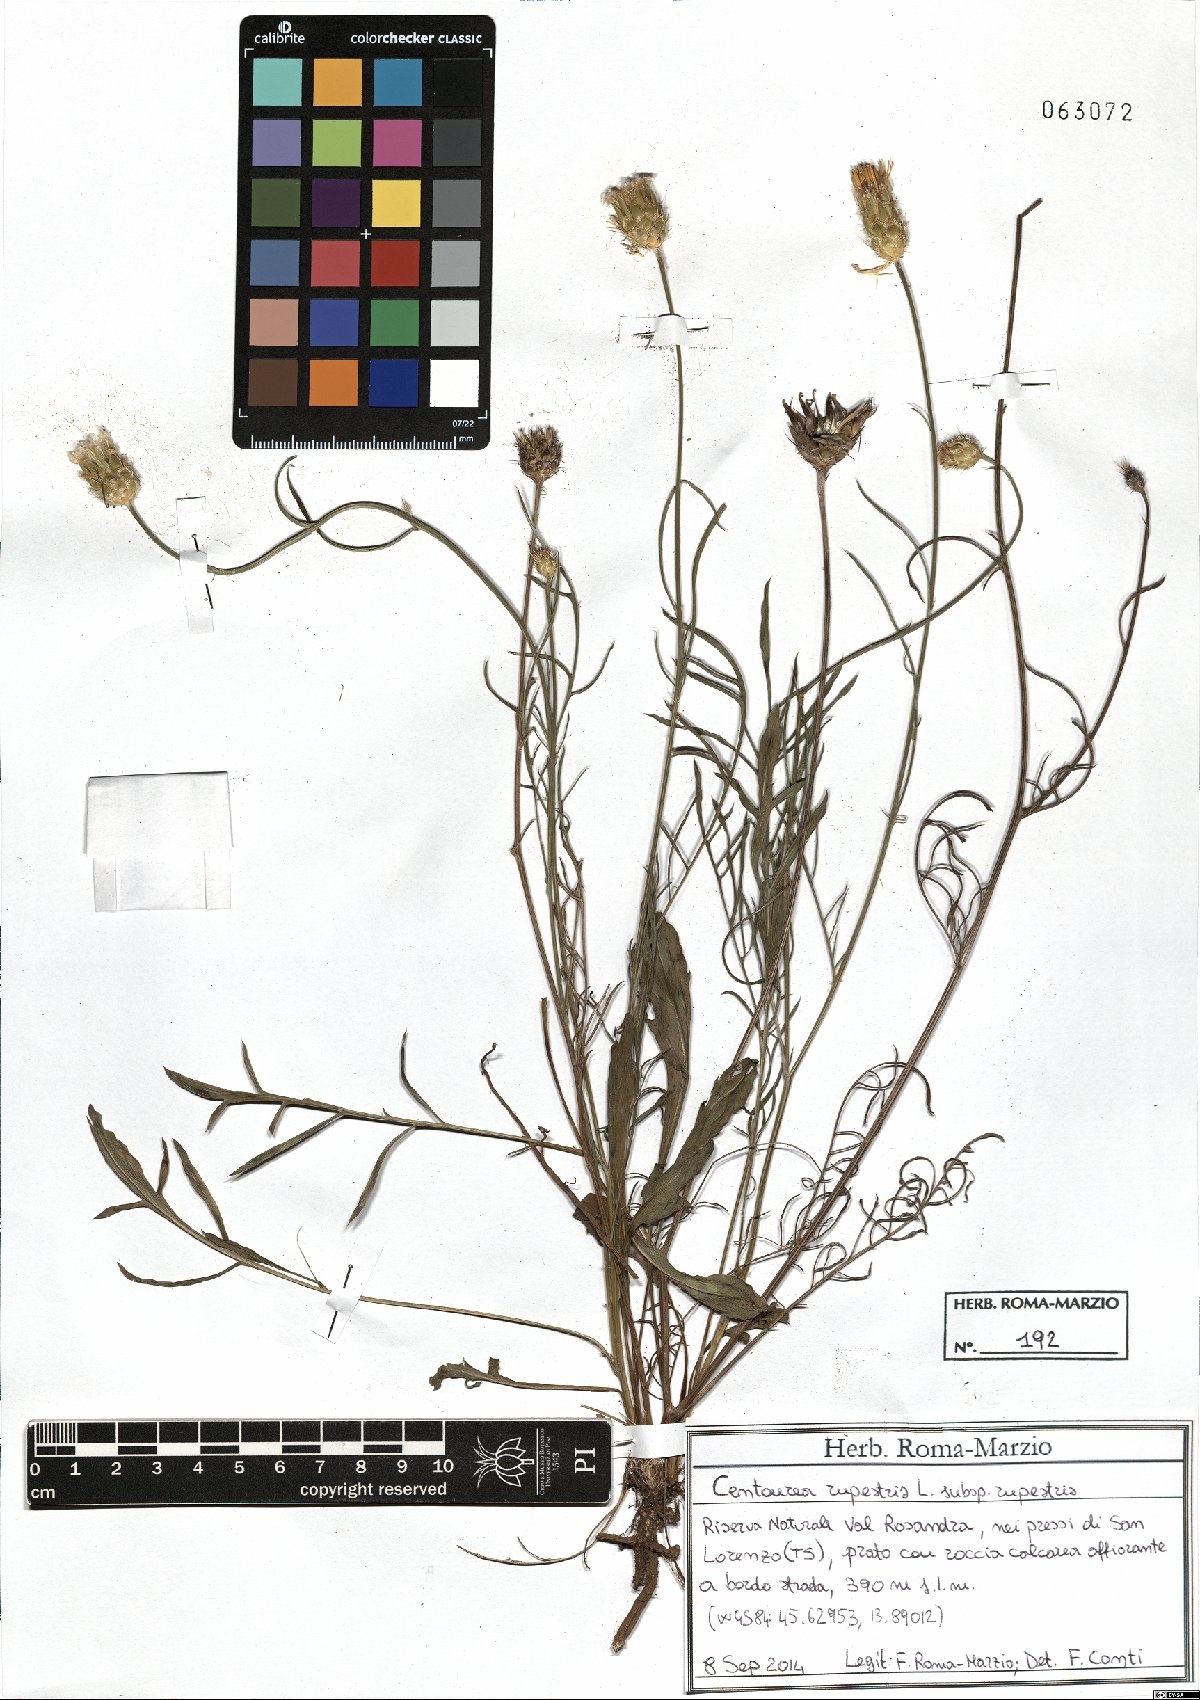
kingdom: Plantae
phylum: Tracheophyta
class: Magnoliopsida
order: Asterales
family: Asteraceae
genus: Centaurea
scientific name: Centaurea rupestris
